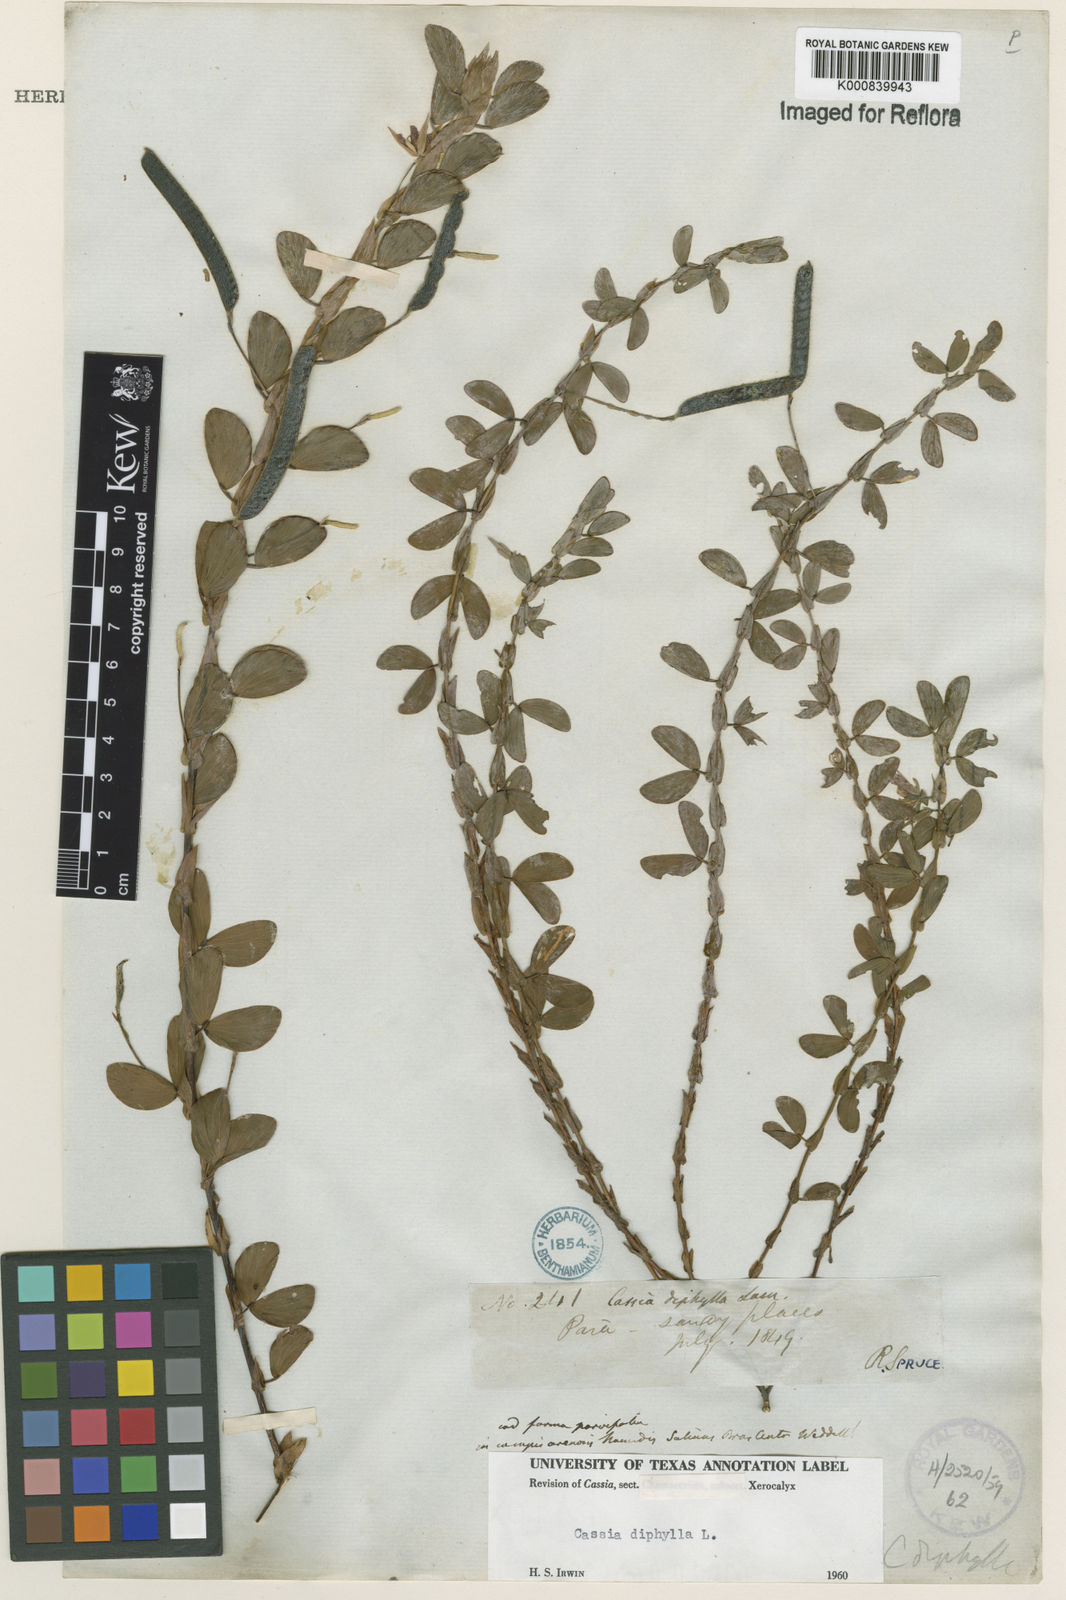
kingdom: Plantae
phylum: Tracheophyta
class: Magnoliopsida
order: Fabales
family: Fabaceae
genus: Chamaecrista
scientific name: Chamaecrista diphylla
